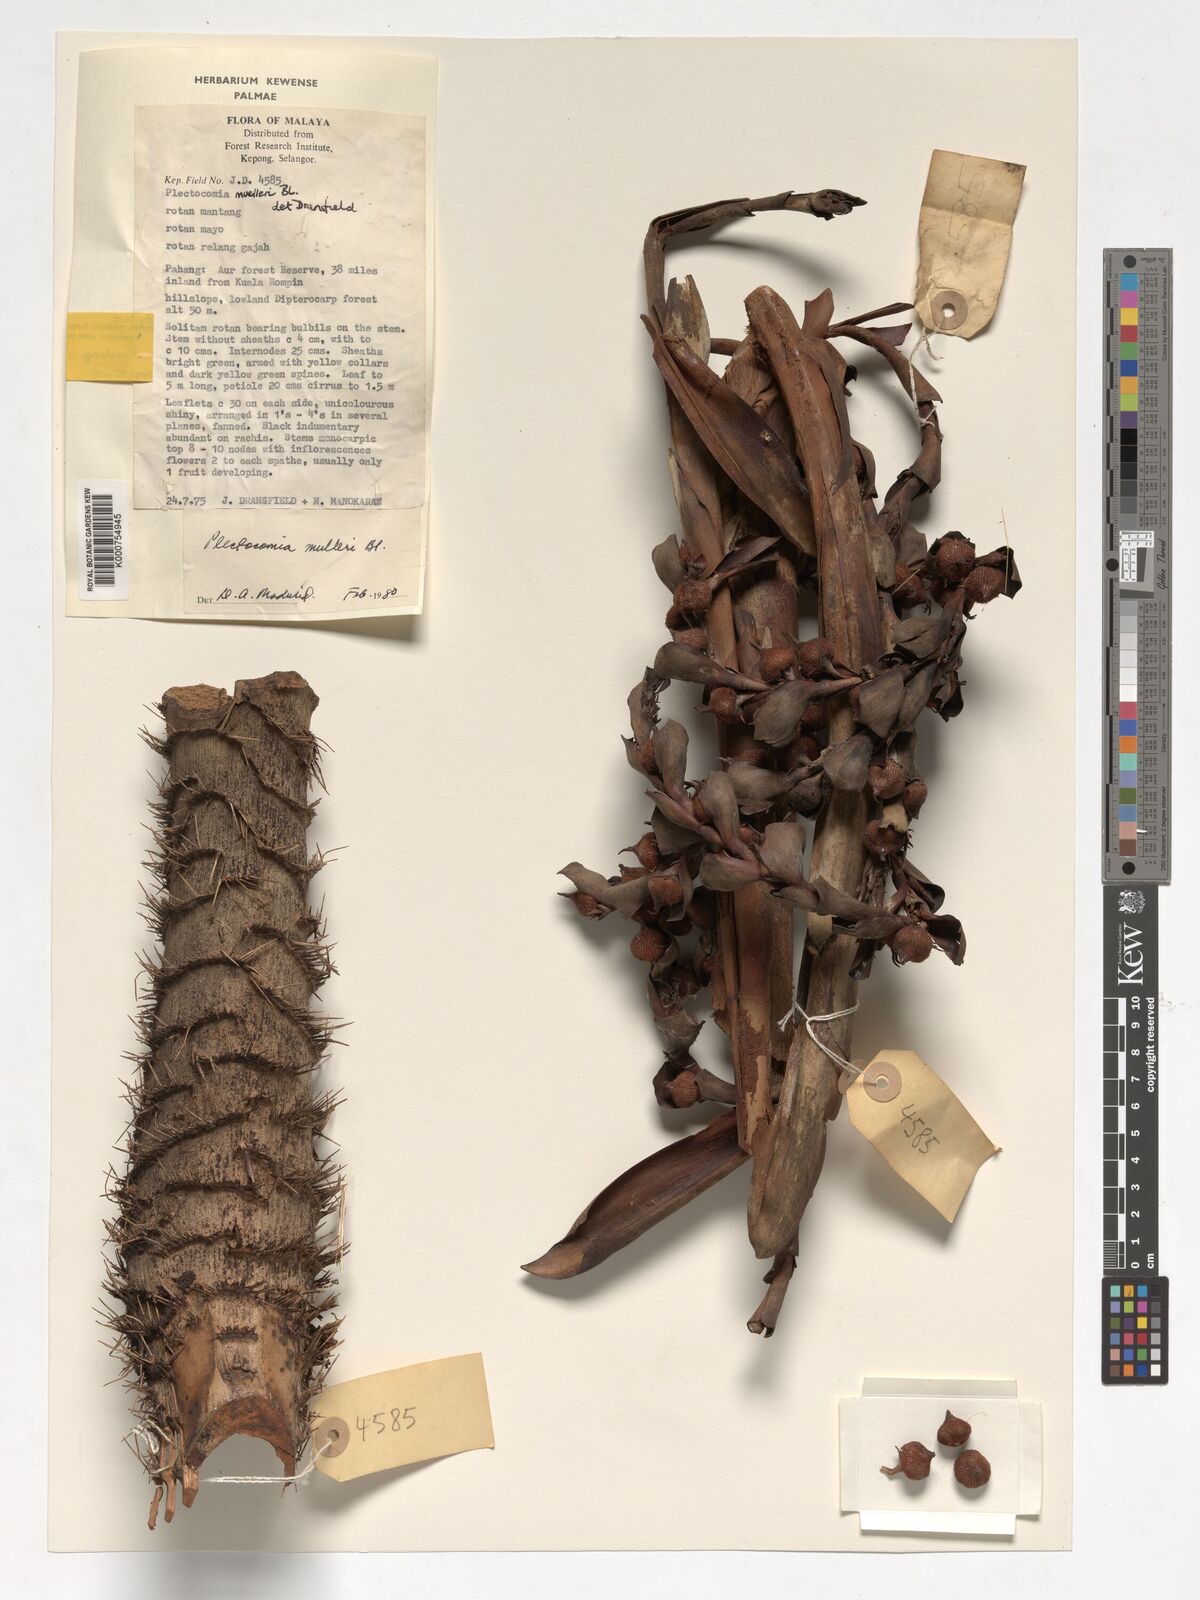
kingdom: Plantae
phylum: Tracheophyta
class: Liliopsida
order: Arecales
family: Arecaceae
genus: Plectocomia
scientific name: Plectocomia mulleri
